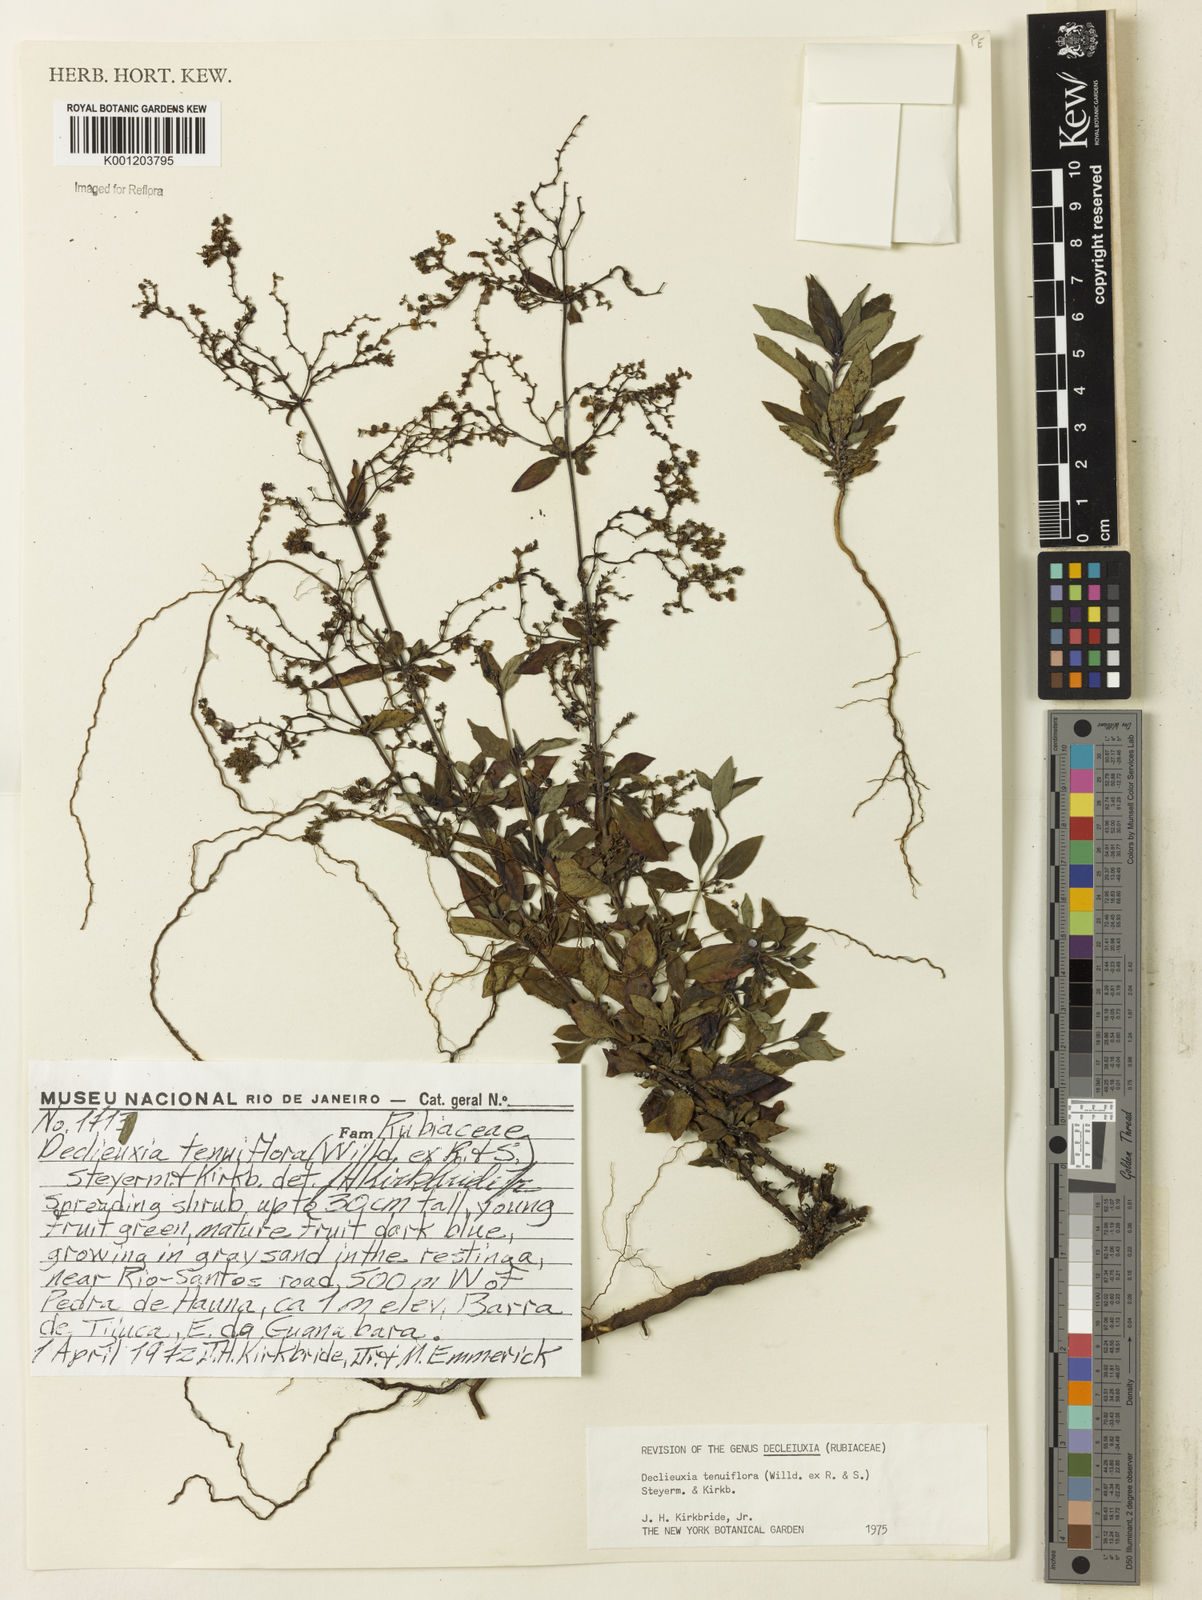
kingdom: Plantae
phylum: Tracheophyta
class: Magnoliopsida
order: Gentianales
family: Rubiaceae
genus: Declieuxia
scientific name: Declieuxia tenuiflora
